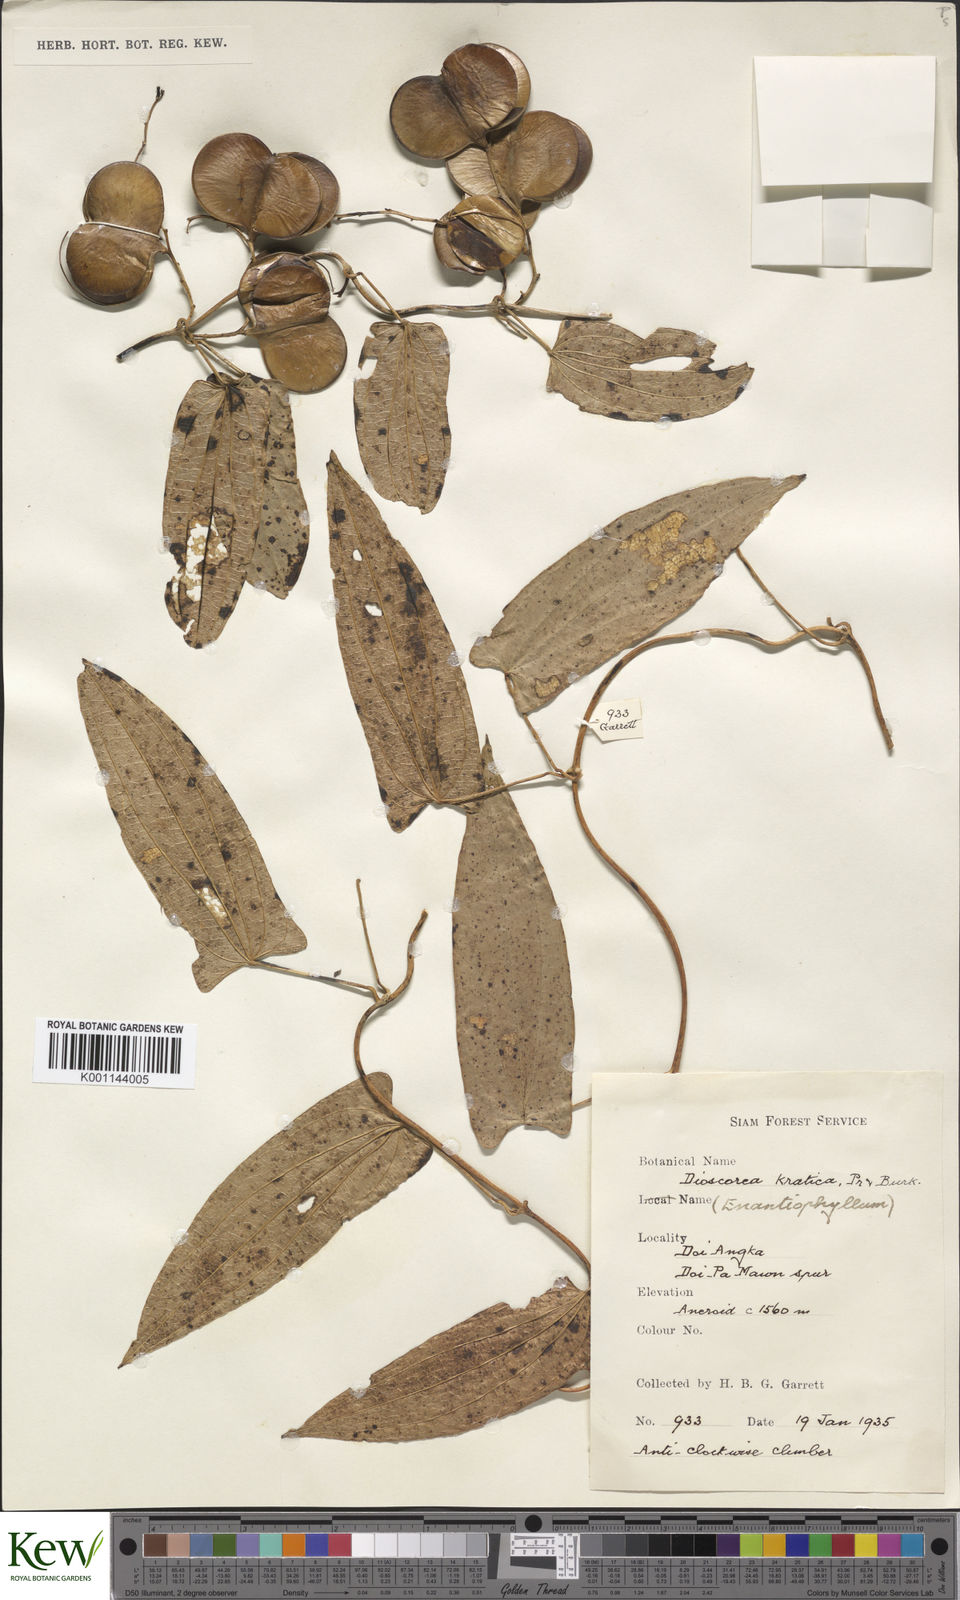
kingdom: Plantae
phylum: Tracheophyta
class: Liliopsida
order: Dioscoreales
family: Dioscoreaceae
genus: Dioscorea
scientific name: Dioscorea kratica
